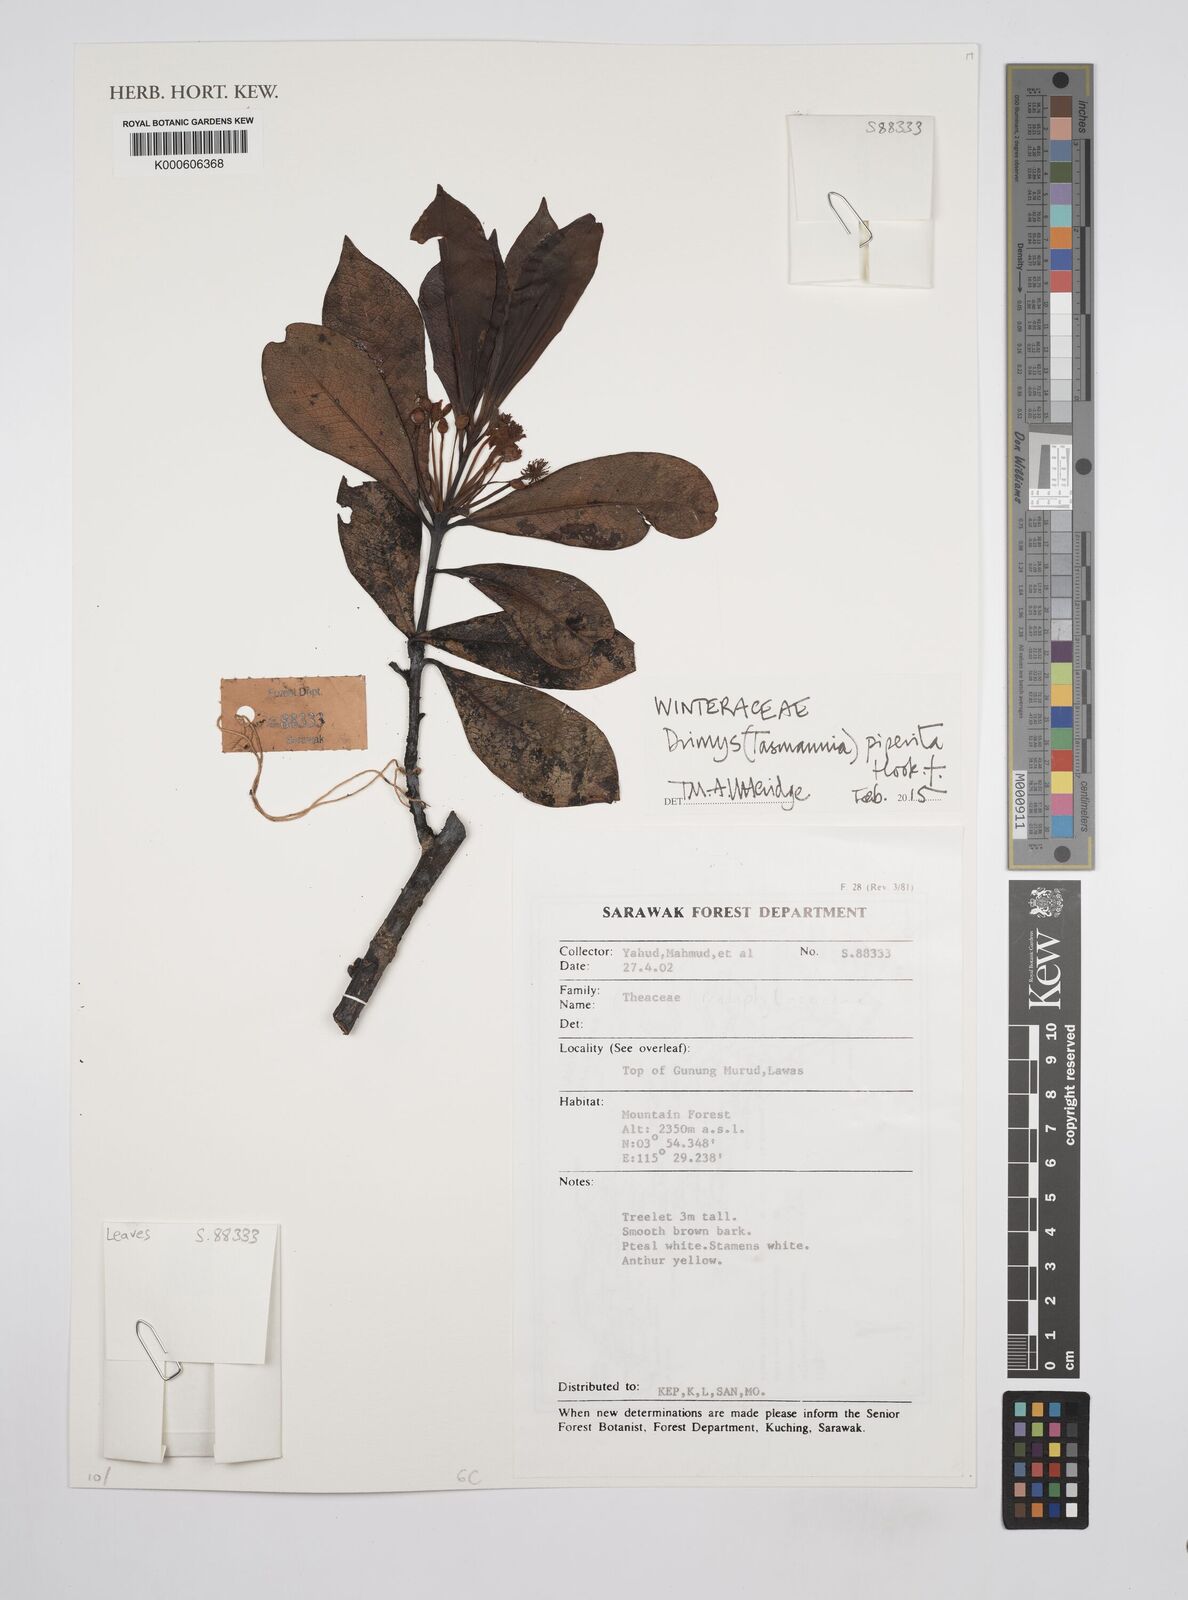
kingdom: Plantae
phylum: Tracheophyta
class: Magnoliopsida
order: Canellales
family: Winteraceae
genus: Drimys
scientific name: Drimys piperita
